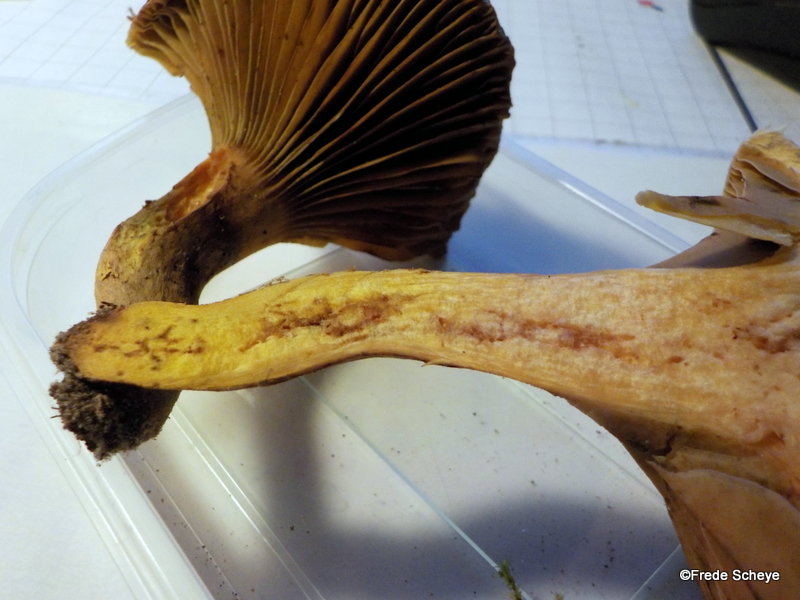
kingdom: Fungi
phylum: Basidiomycota
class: Agaricomycetes
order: Boletales
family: Gomphidiaceae
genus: Gomphidius
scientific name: Gomphidius glutinosus
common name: grå slimslør
